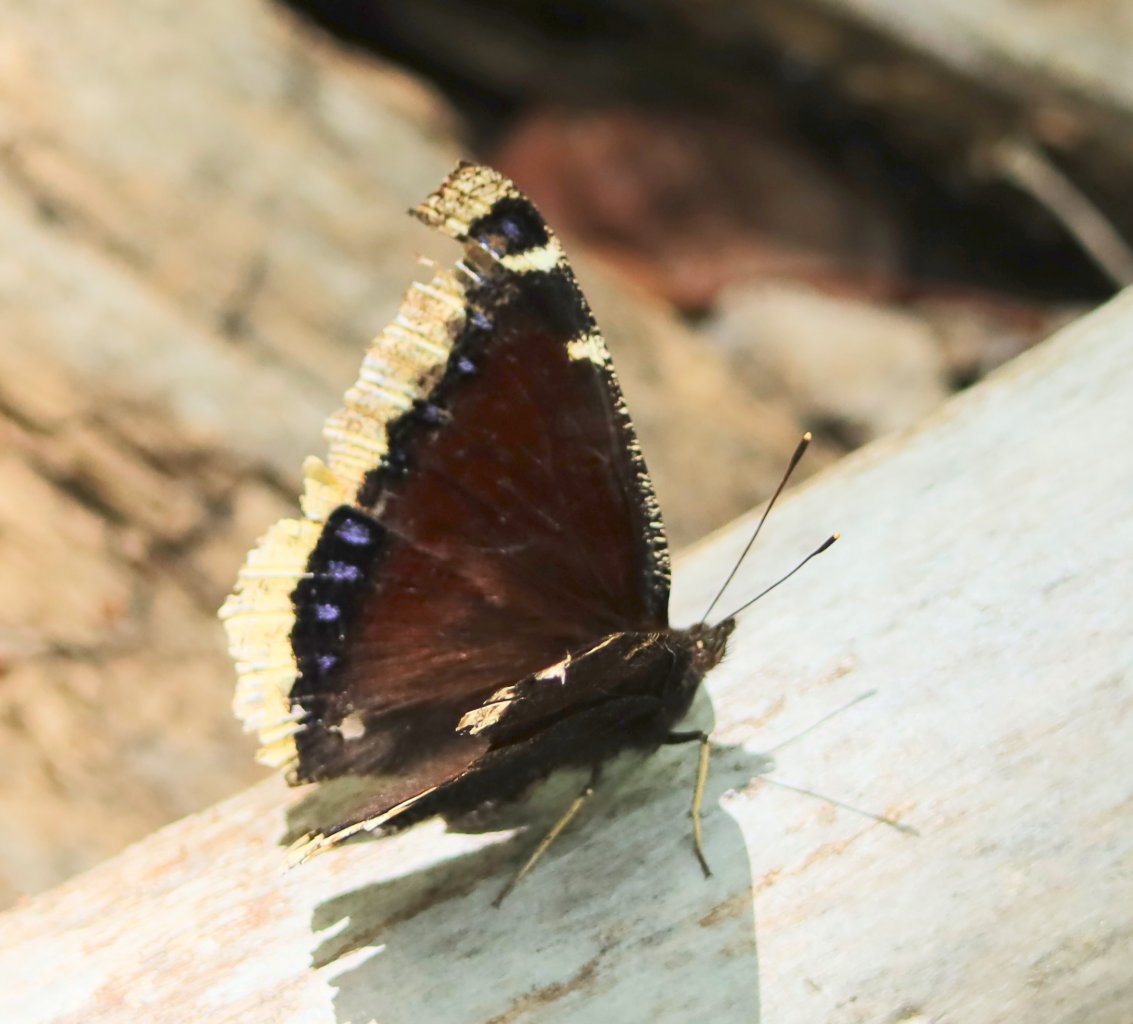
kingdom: Animalia
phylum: Arthropoda
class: Insecta
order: Lepidoptera
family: Nymphalidae
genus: Nymphalis
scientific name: Nymphalis antiopa
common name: Mourning Cloak
